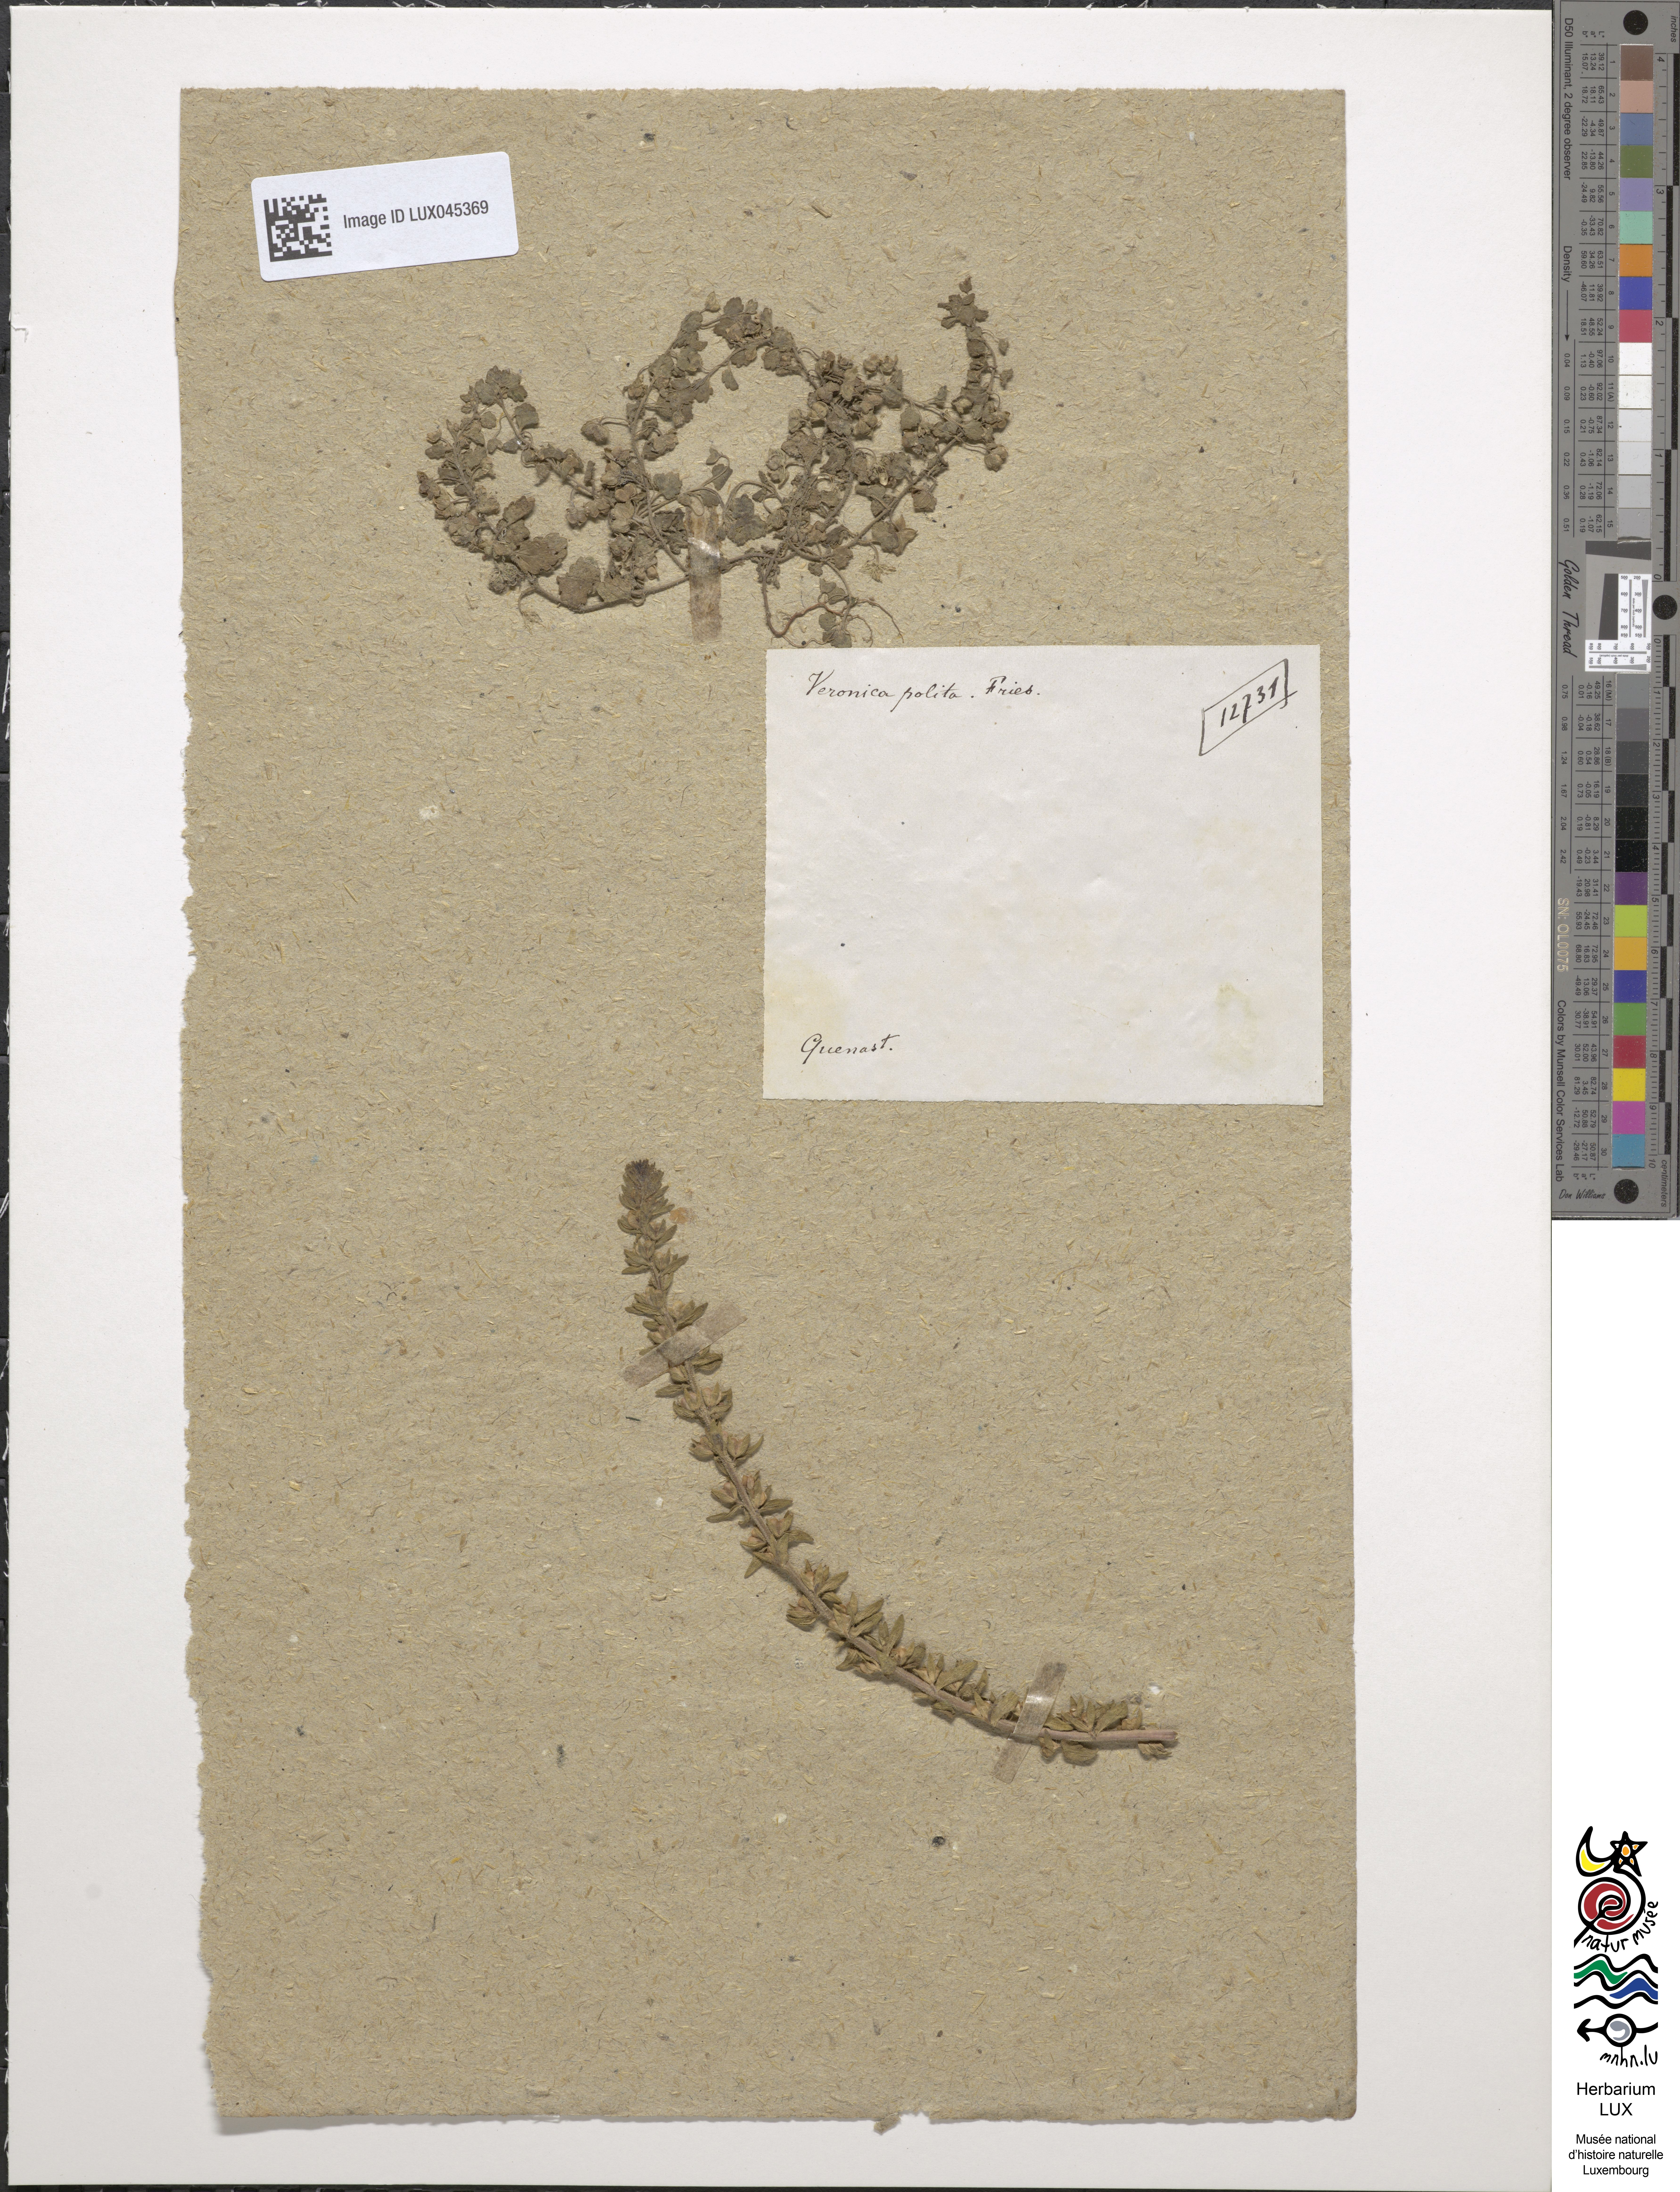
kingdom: Plantae
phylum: Tracheophyta
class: Magnoliopsida
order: Lamiales
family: Plantaginaceae
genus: Veronica
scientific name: Veronica polita
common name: Grey field-speedwell
